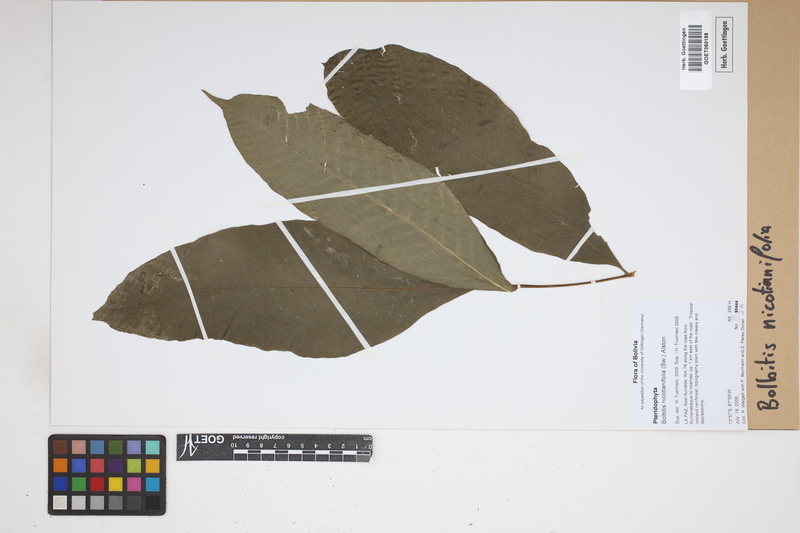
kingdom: Plantae
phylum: Tracheophyta
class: Polypodiopsida
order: Polypodiales
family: Dryopteridaceae
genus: Mickelia
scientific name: Mickelia nicotianifolia
